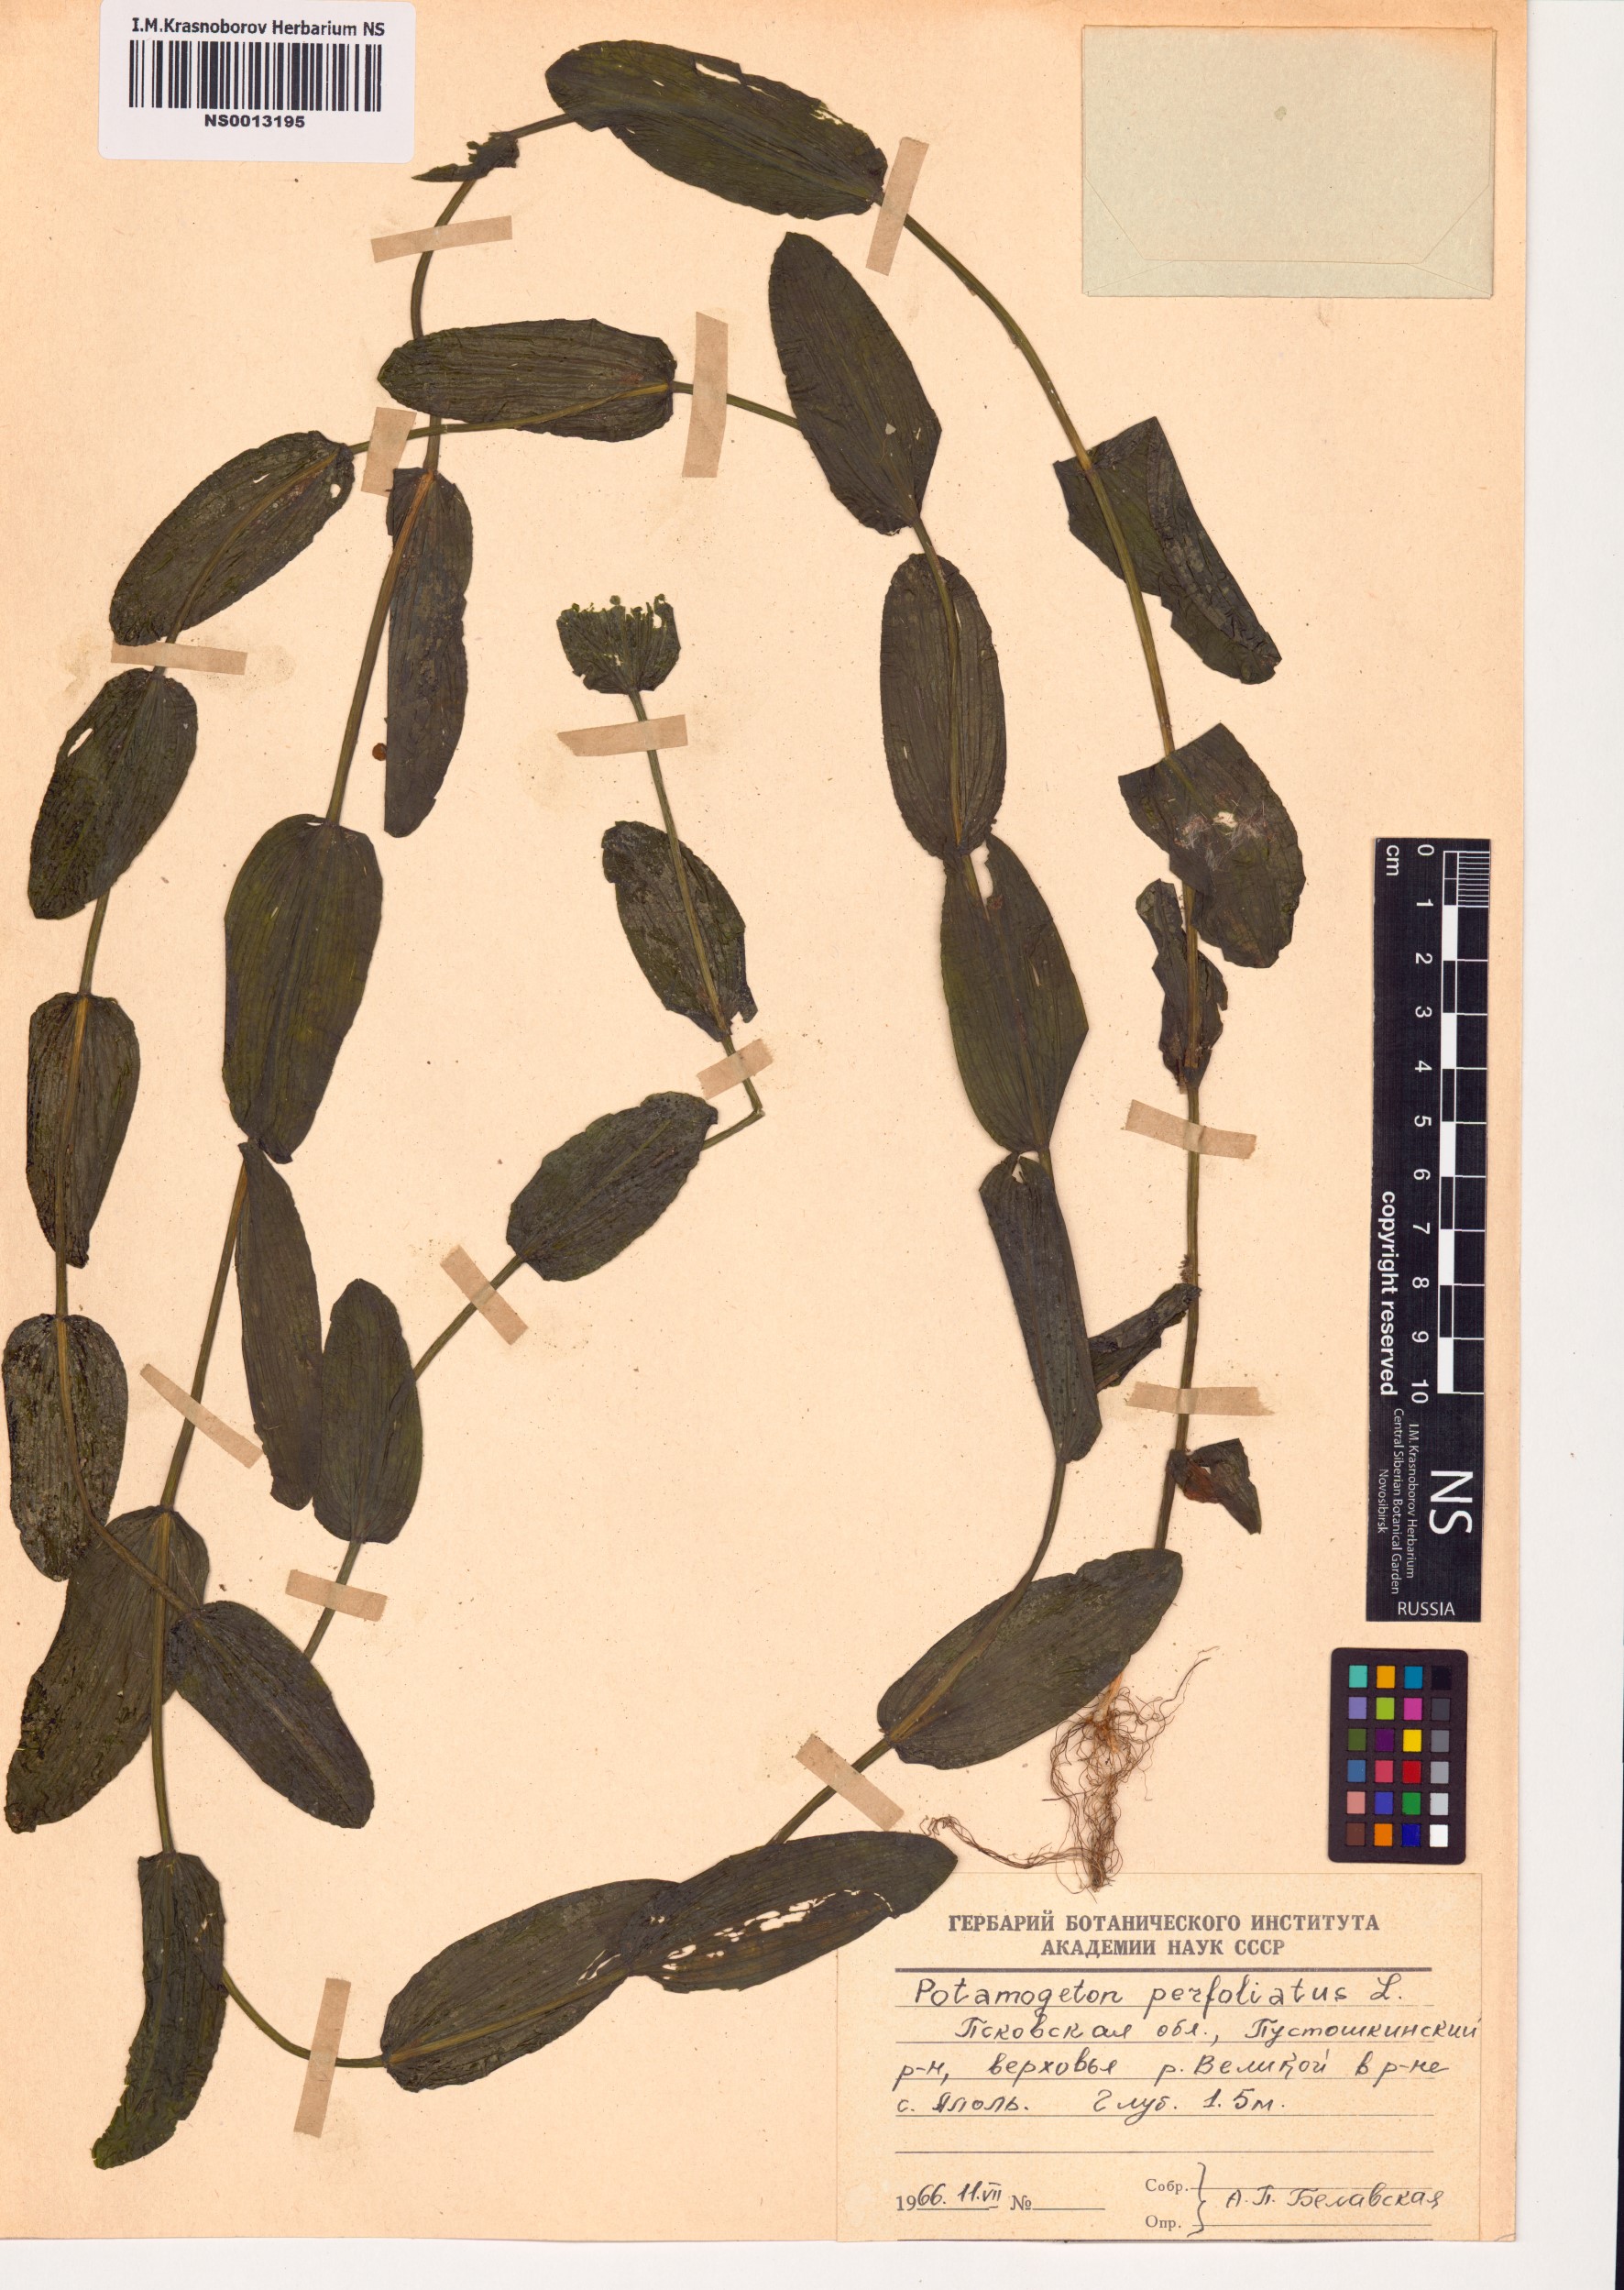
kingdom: Plantae
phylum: Tracheophyta
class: Liliopsida
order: Alismatales
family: Potamogetonaceae
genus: Potamogeton
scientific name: Potamogeton perfoliatus
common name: Perfoliate pondweed
